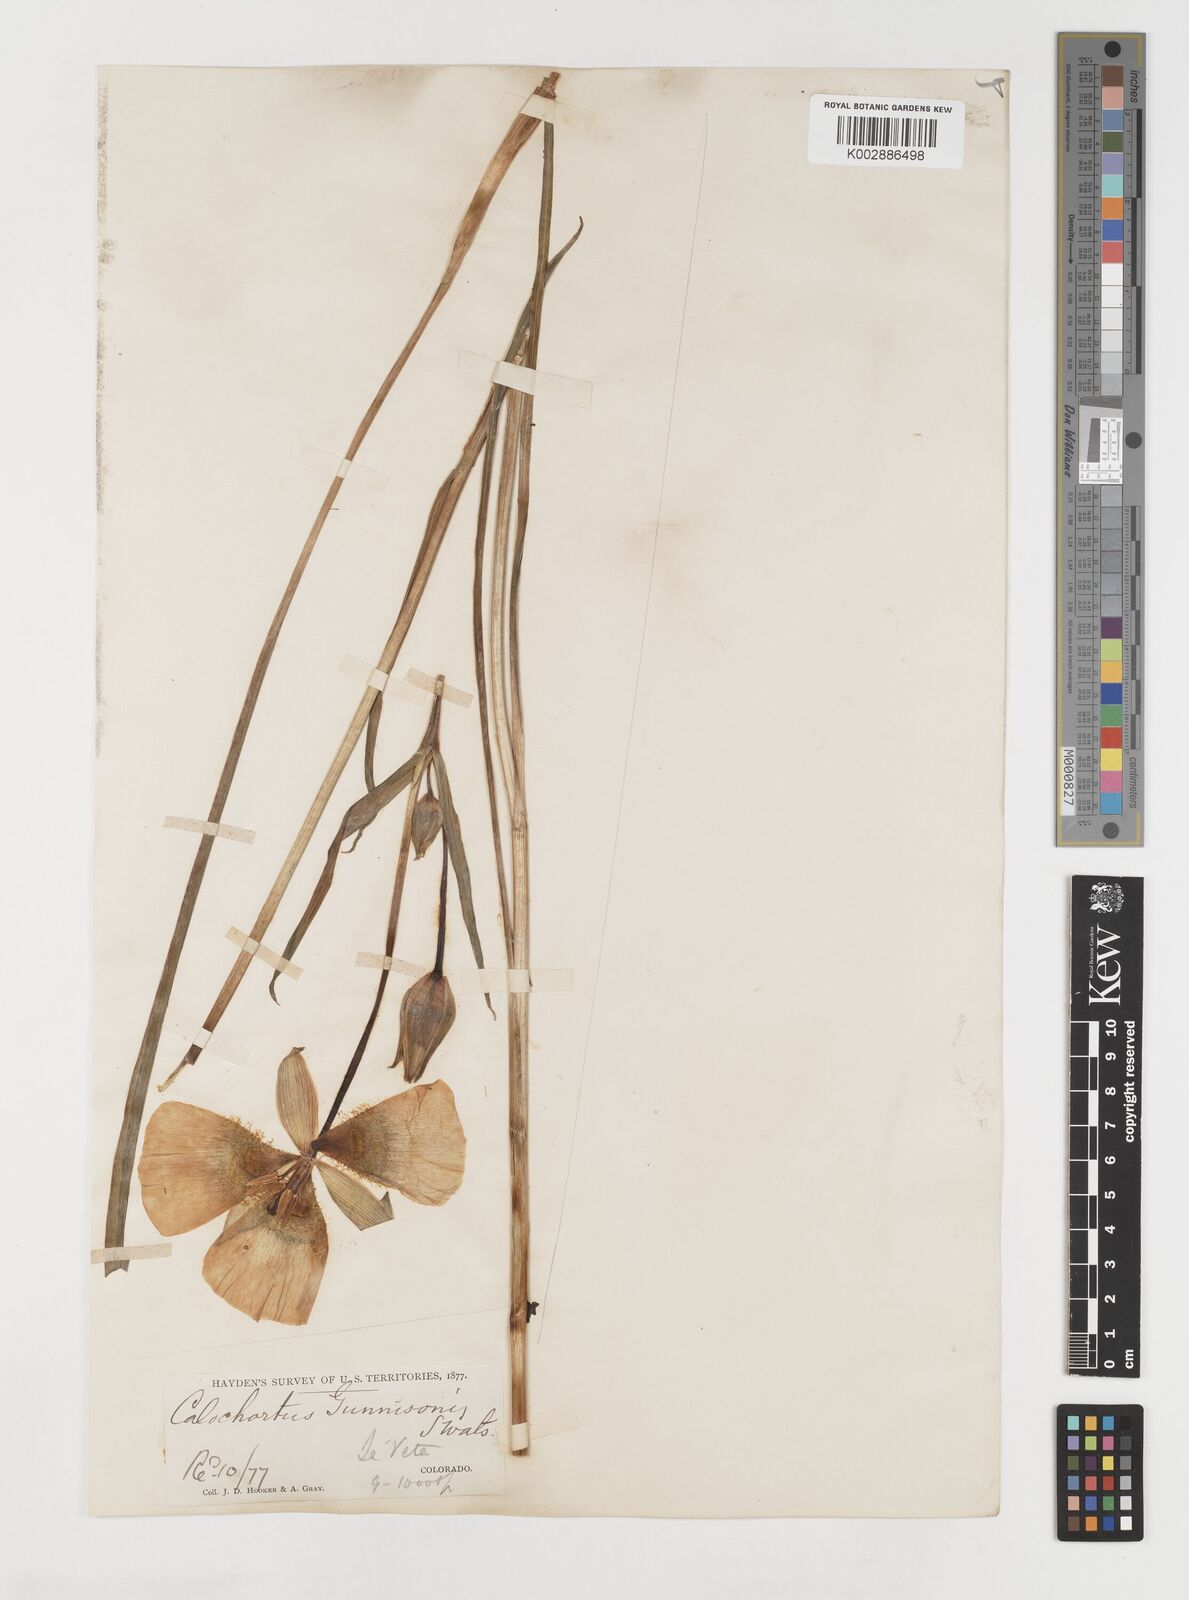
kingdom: Plantae
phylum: Tracheophyta
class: Liliopsida
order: Liliales
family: Liliaceae
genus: Calochortus
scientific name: Calochortus gunnisonii
